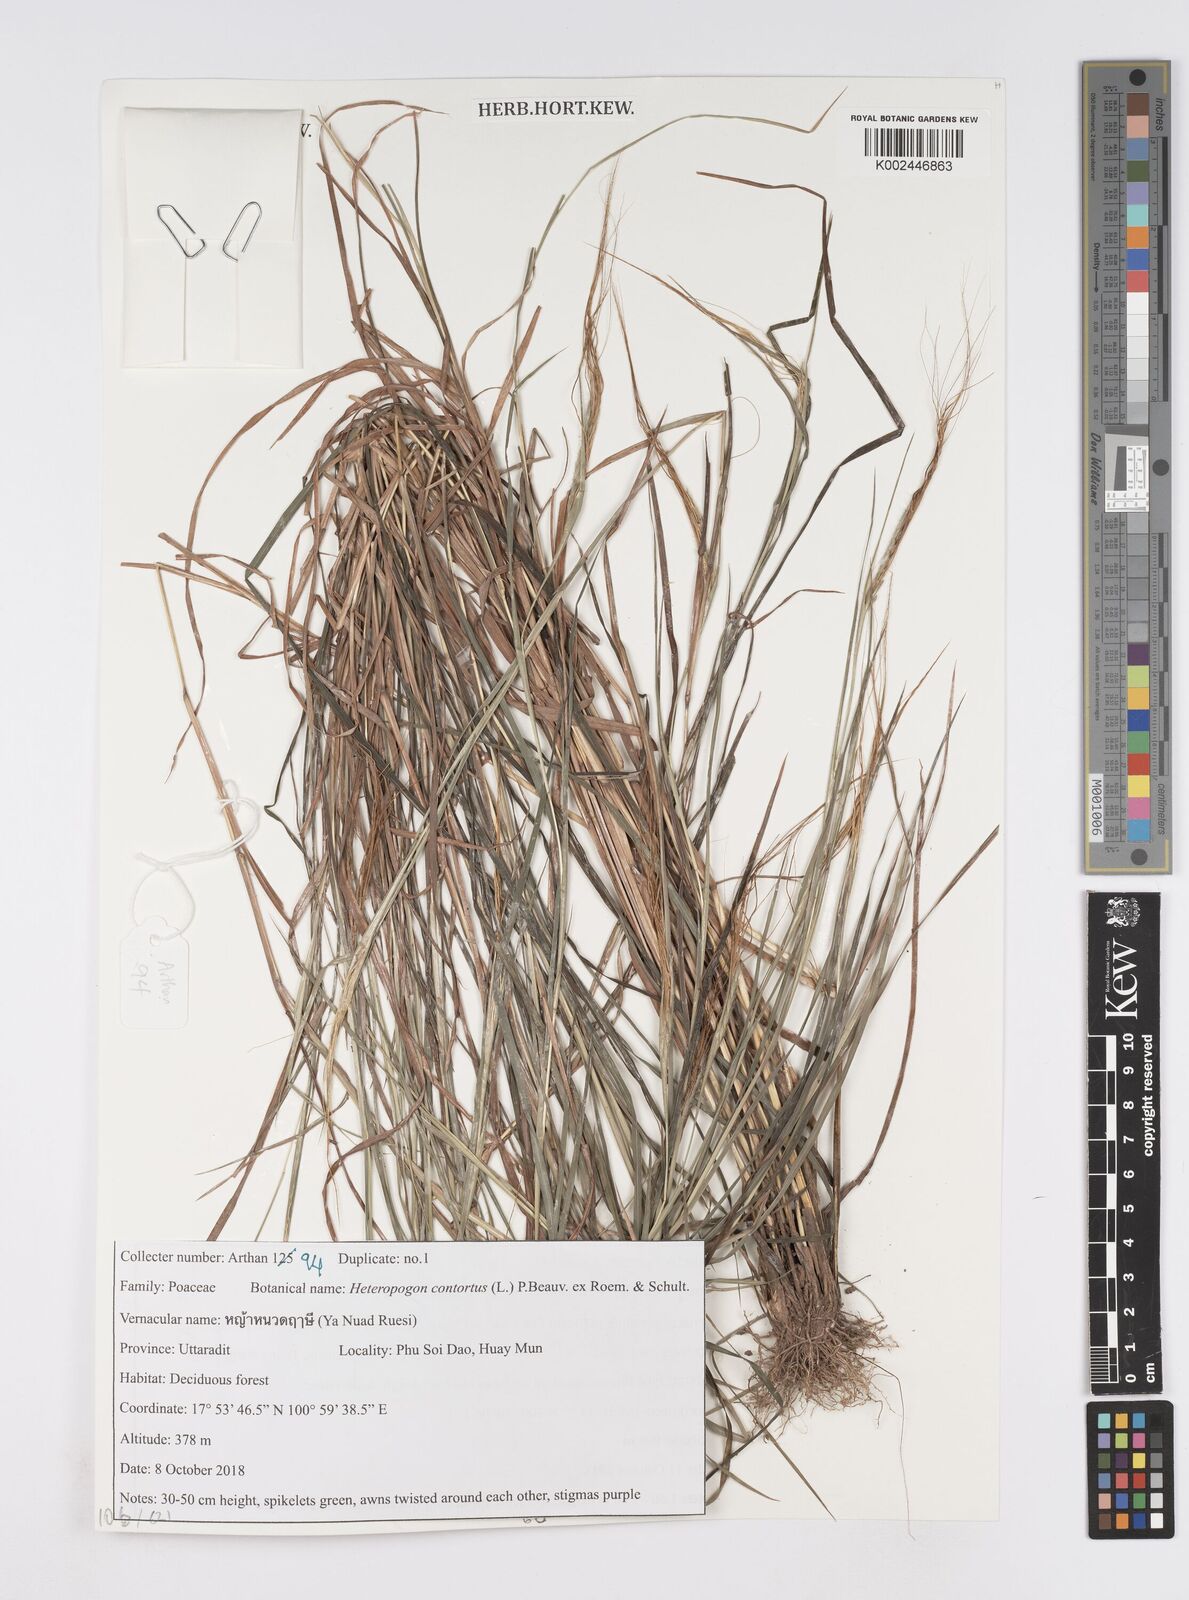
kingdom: Plantae
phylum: Tracheophyta
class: Liliopsida
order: Poales
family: Poaceae
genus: Heteropogon
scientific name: Heteropogon contortus
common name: Tanglehead
